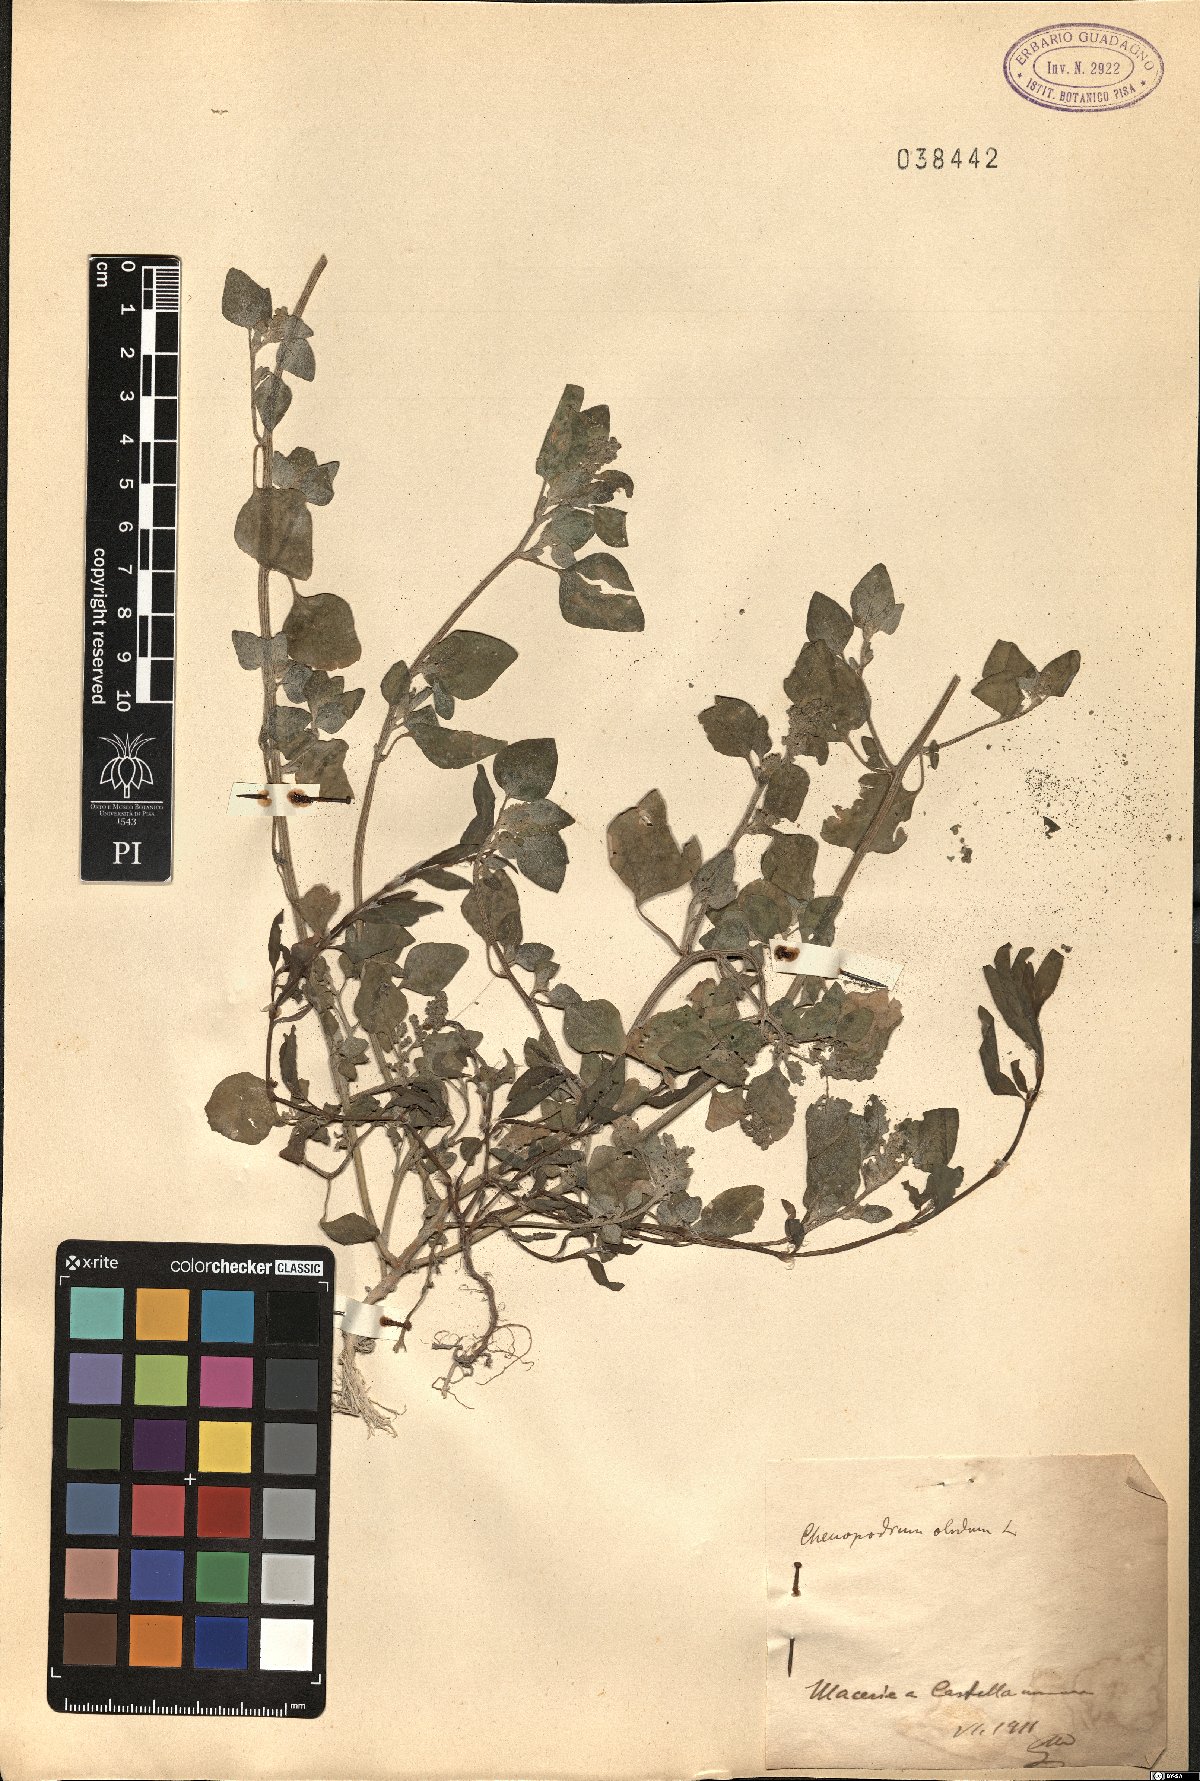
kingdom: Plantae
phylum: Tracheophyta
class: Magnoliopsida
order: Caryophyllales
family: Amaranthaceae
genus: Chenopodium
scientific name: Chenopodium vulvaria
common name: Stinking goosefoot
